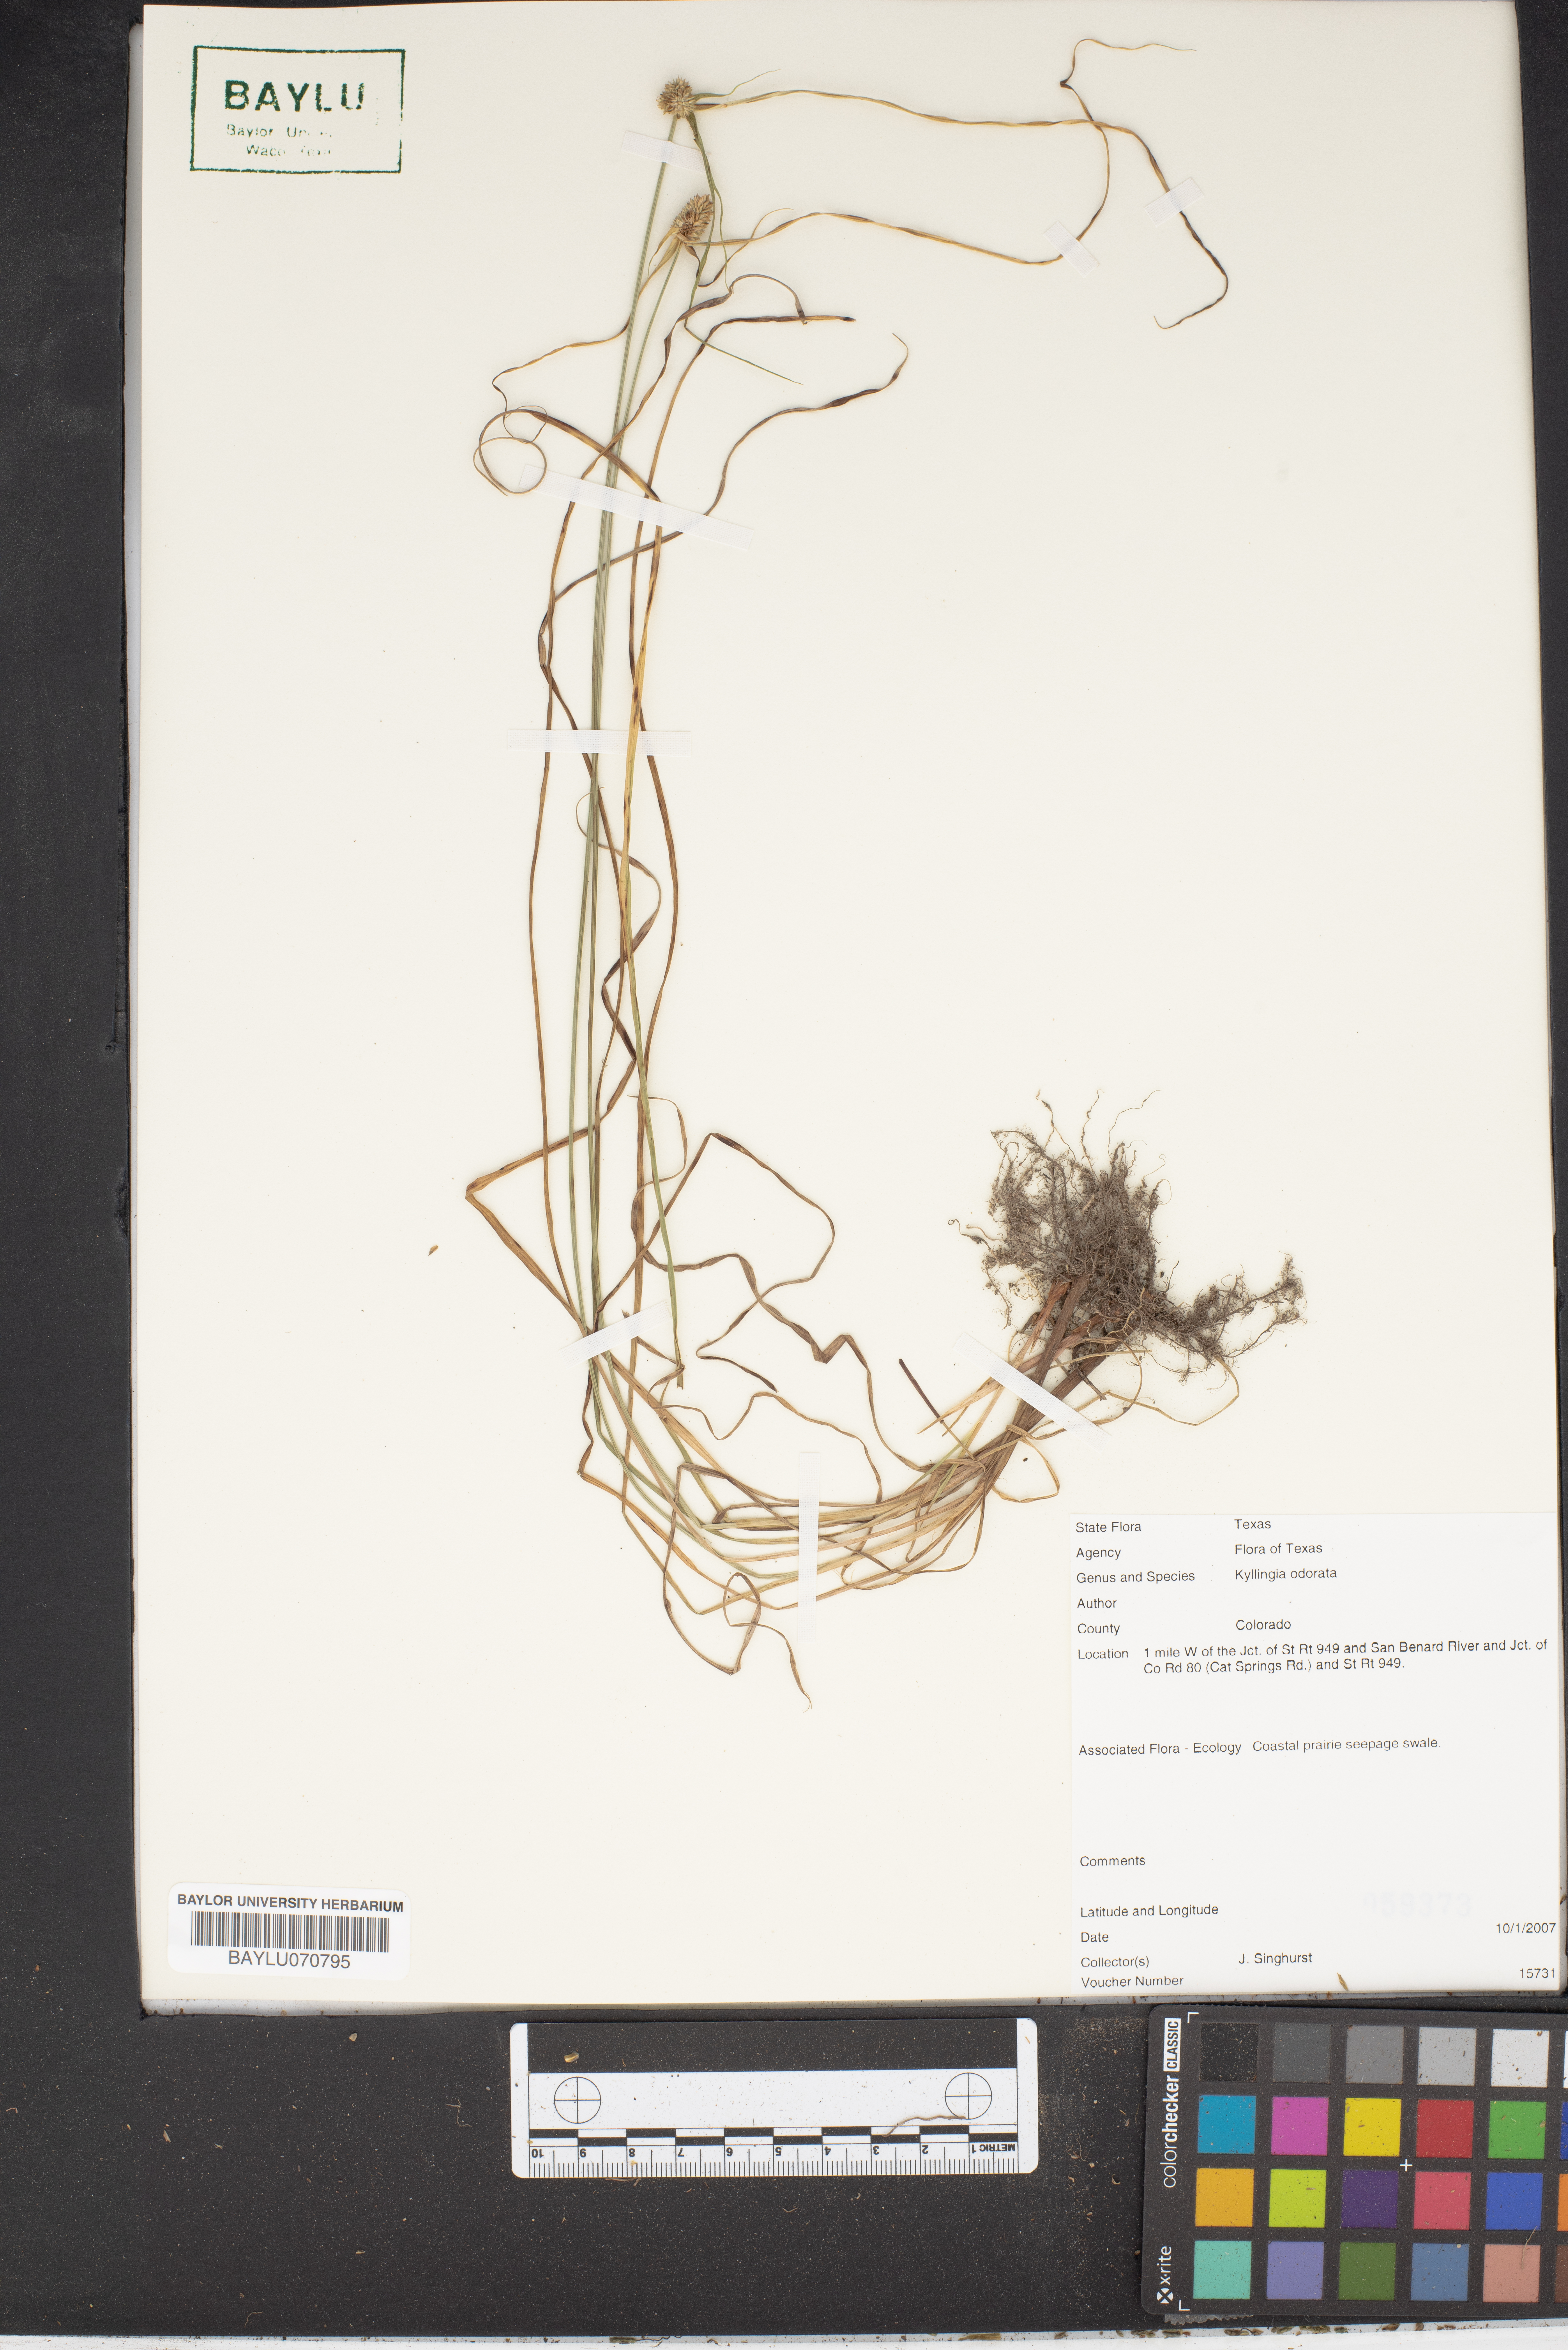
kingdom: Plantae
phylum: Tracheophyta
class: Liliopsida
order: Poales
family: Cyperaceae
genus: Cyperus
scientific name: Cyperus sesquiflorus
